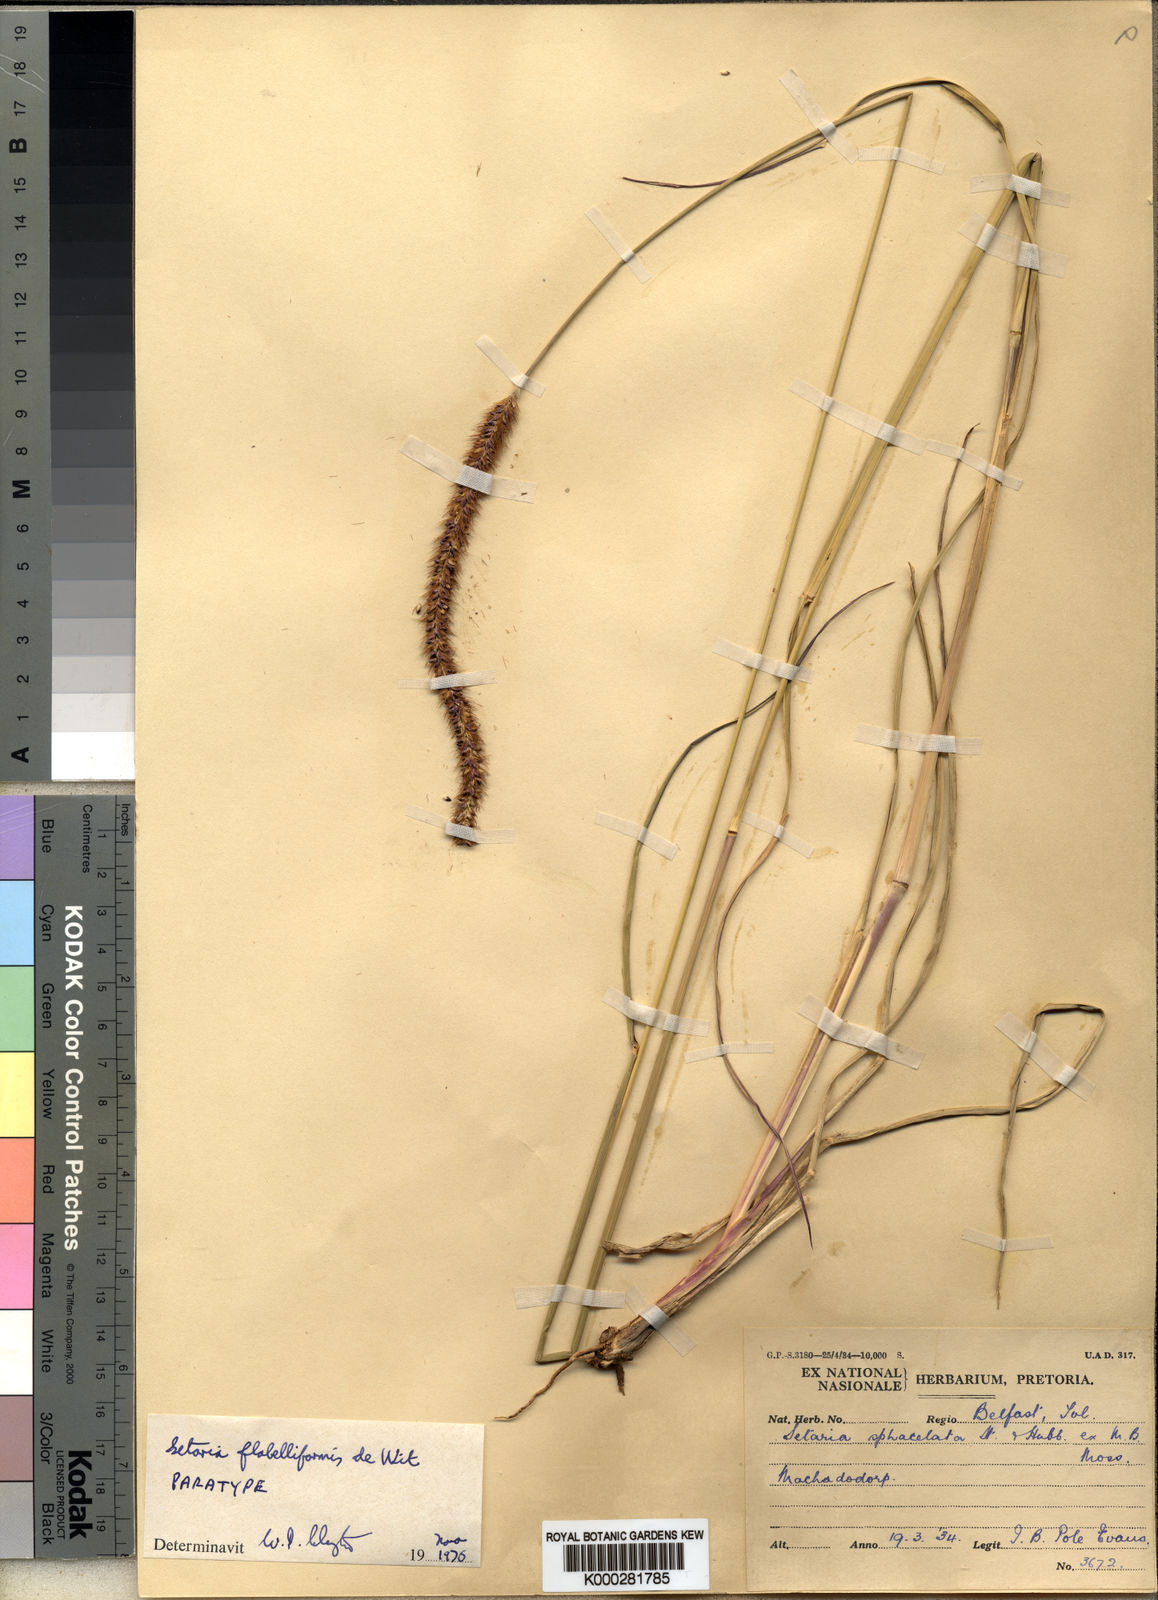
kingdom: Plantae
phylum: Tracheophyta
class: Liliopsida
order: Poales
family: Poaceae
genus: Setaria
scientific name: Setaria sphacelata
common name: African bristlegrass
